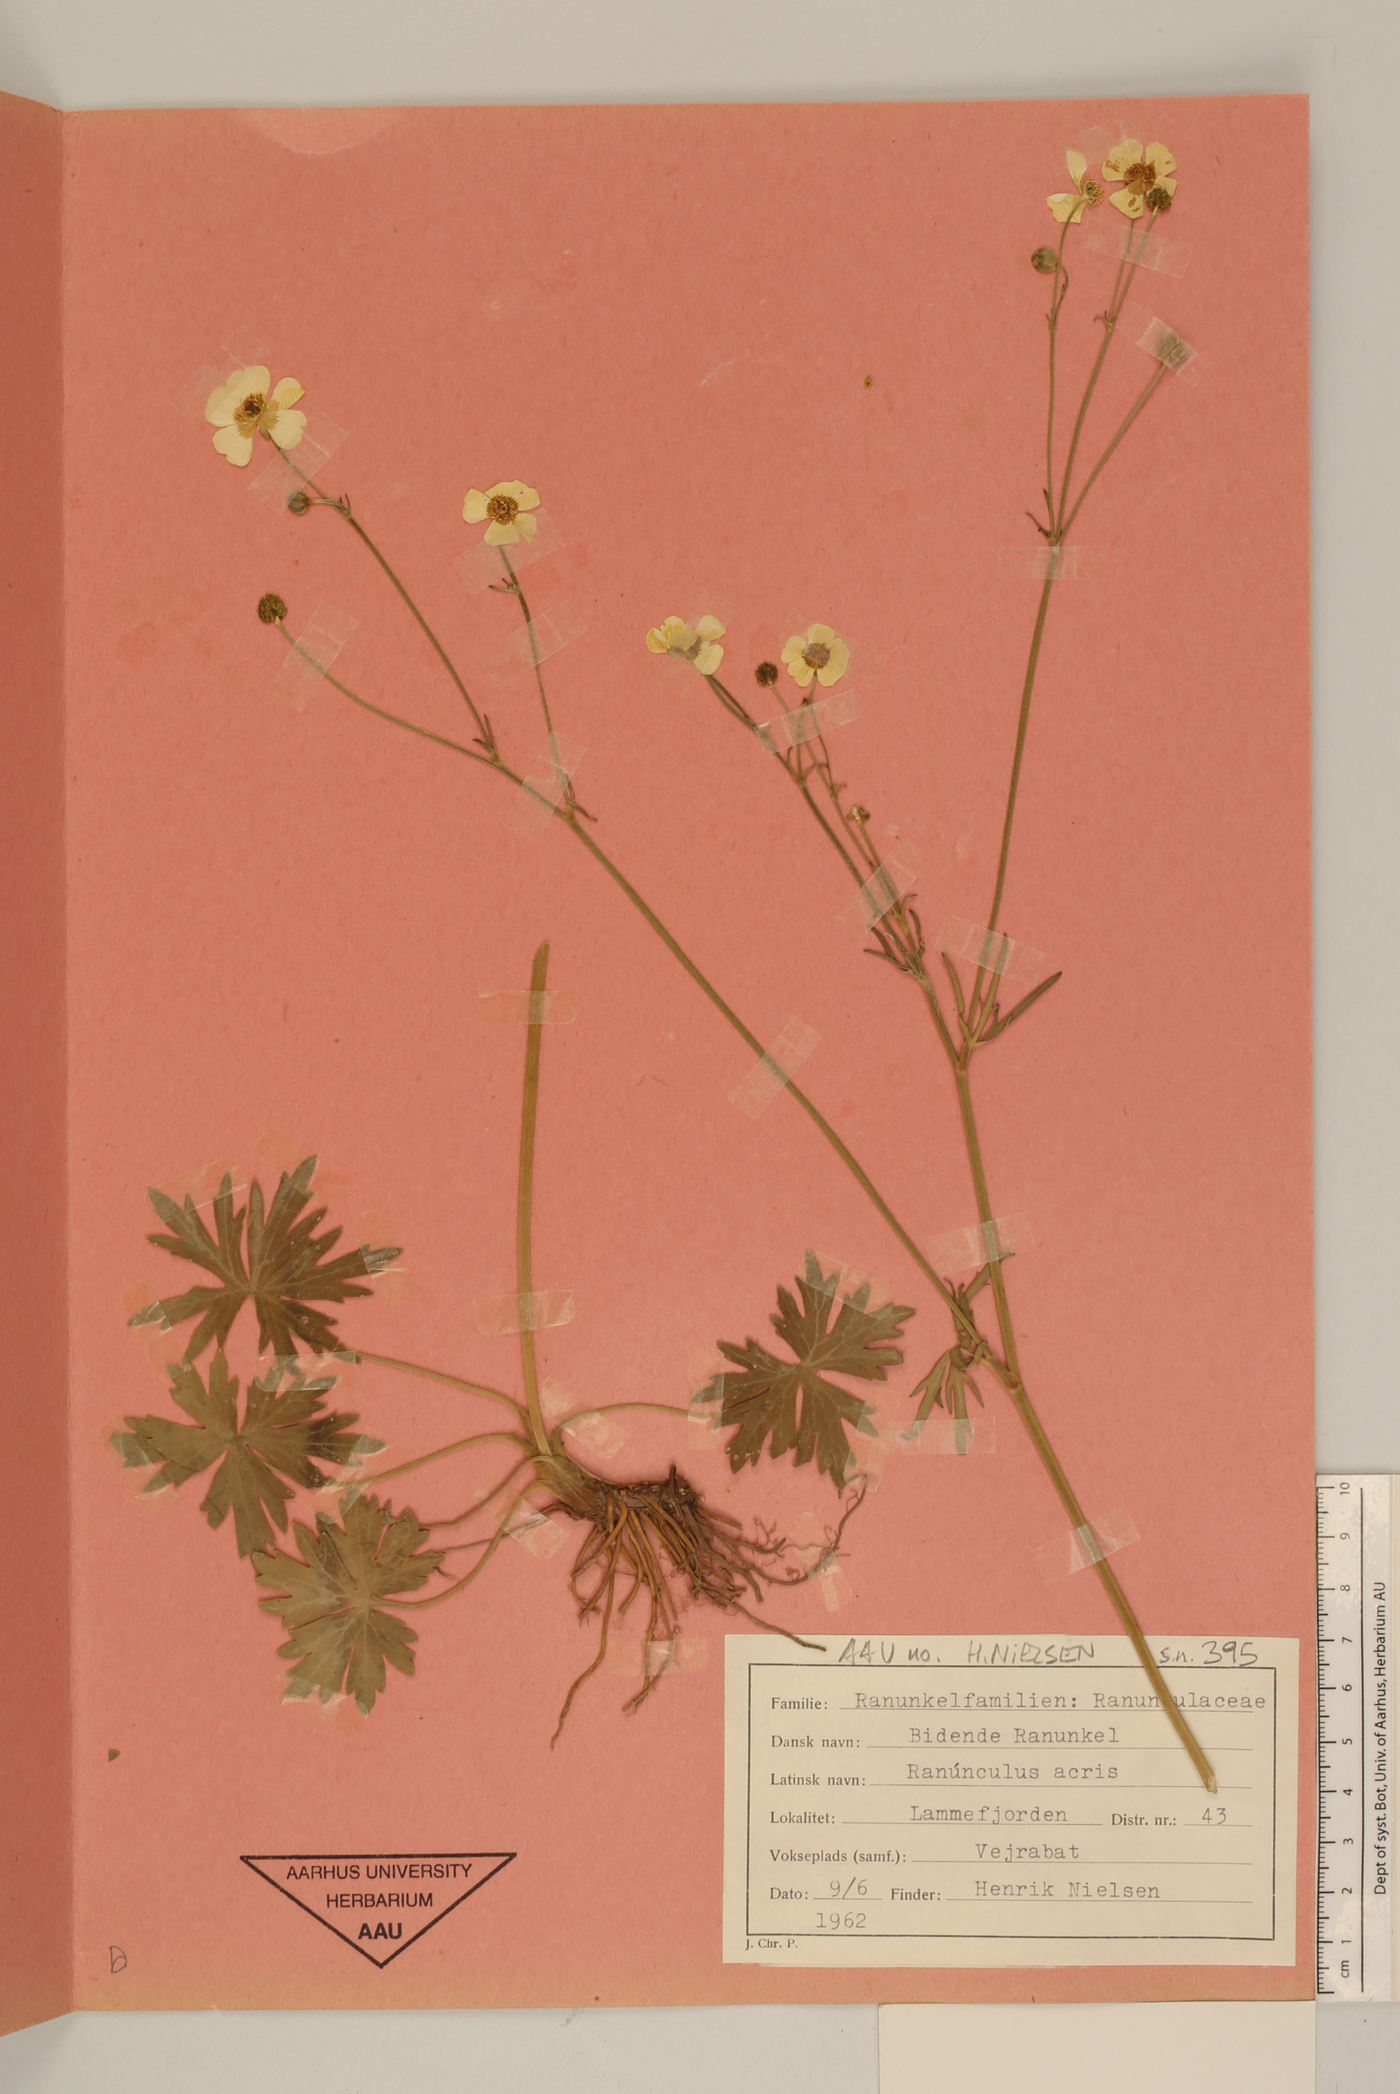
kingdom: Plantae
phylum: Tracheophyta
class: Magnoliopsida
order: Ranunculales
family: Ranunculaceae
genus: Ranunculus
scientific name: Ranunculus acris
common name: Meadow buttercup
